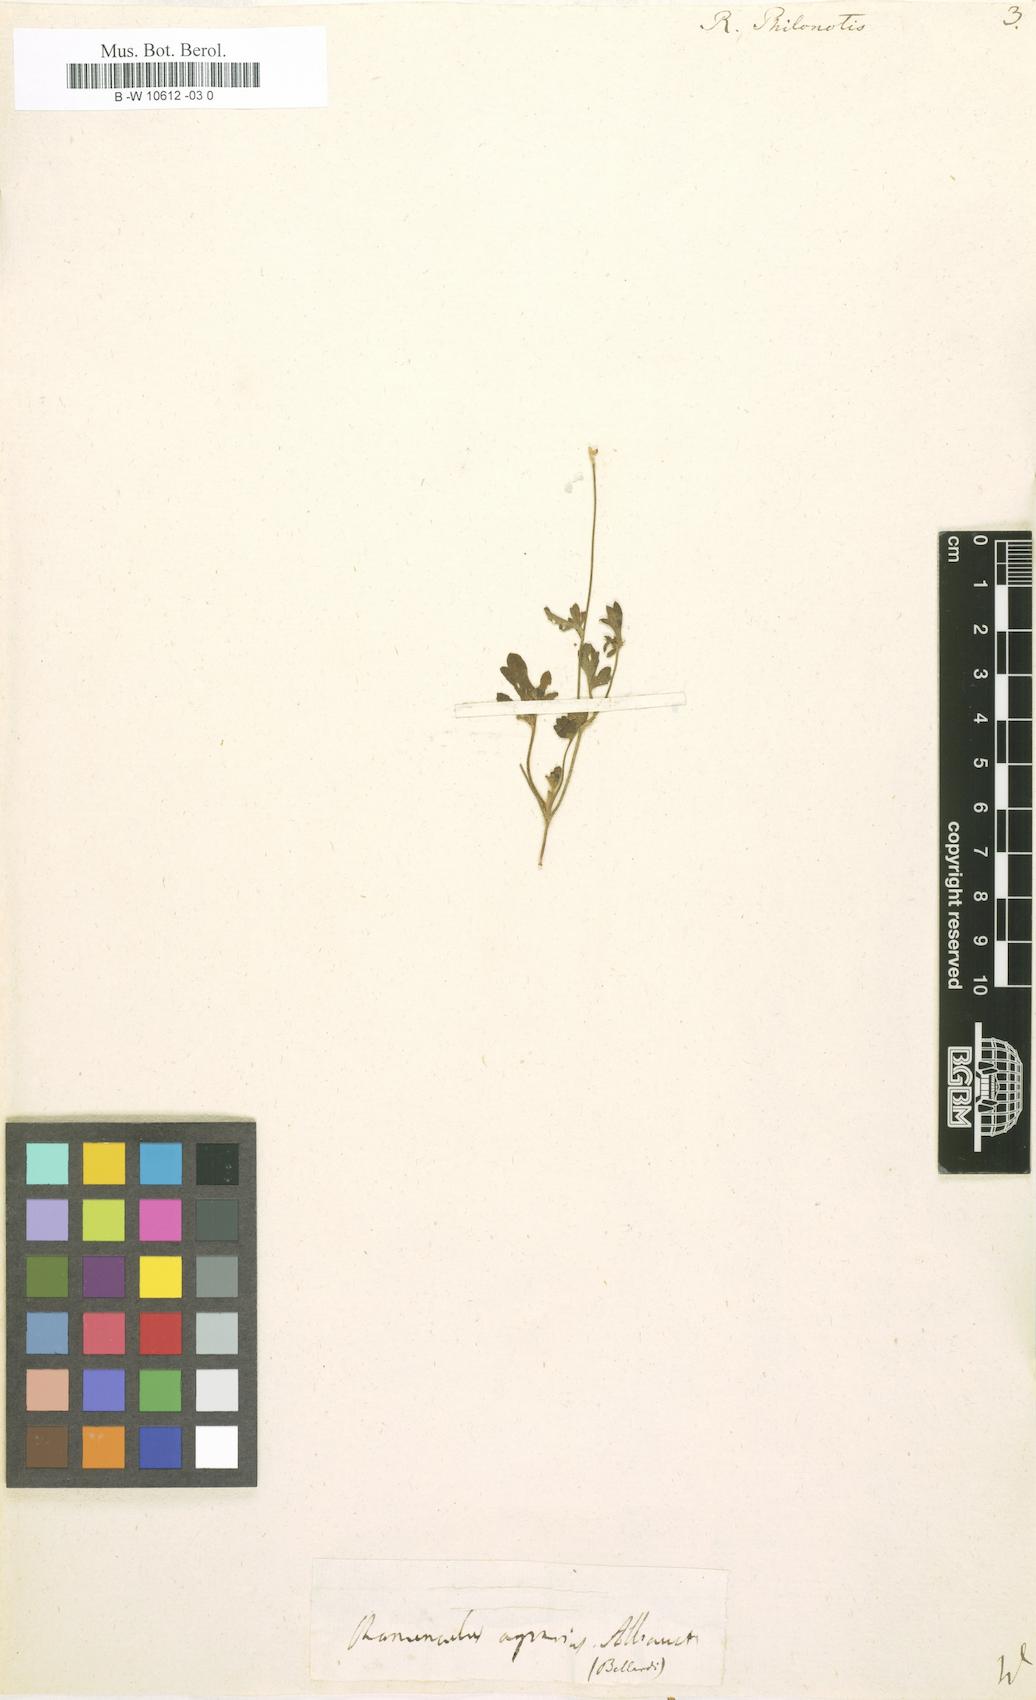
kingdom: Plantae
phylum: Tracheophyta
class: Magnoliopsida
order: Ranunculales
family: Ranunculaceae
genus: Ranunculus
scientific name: Ranunculus sardous
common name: Hairy buttercup
